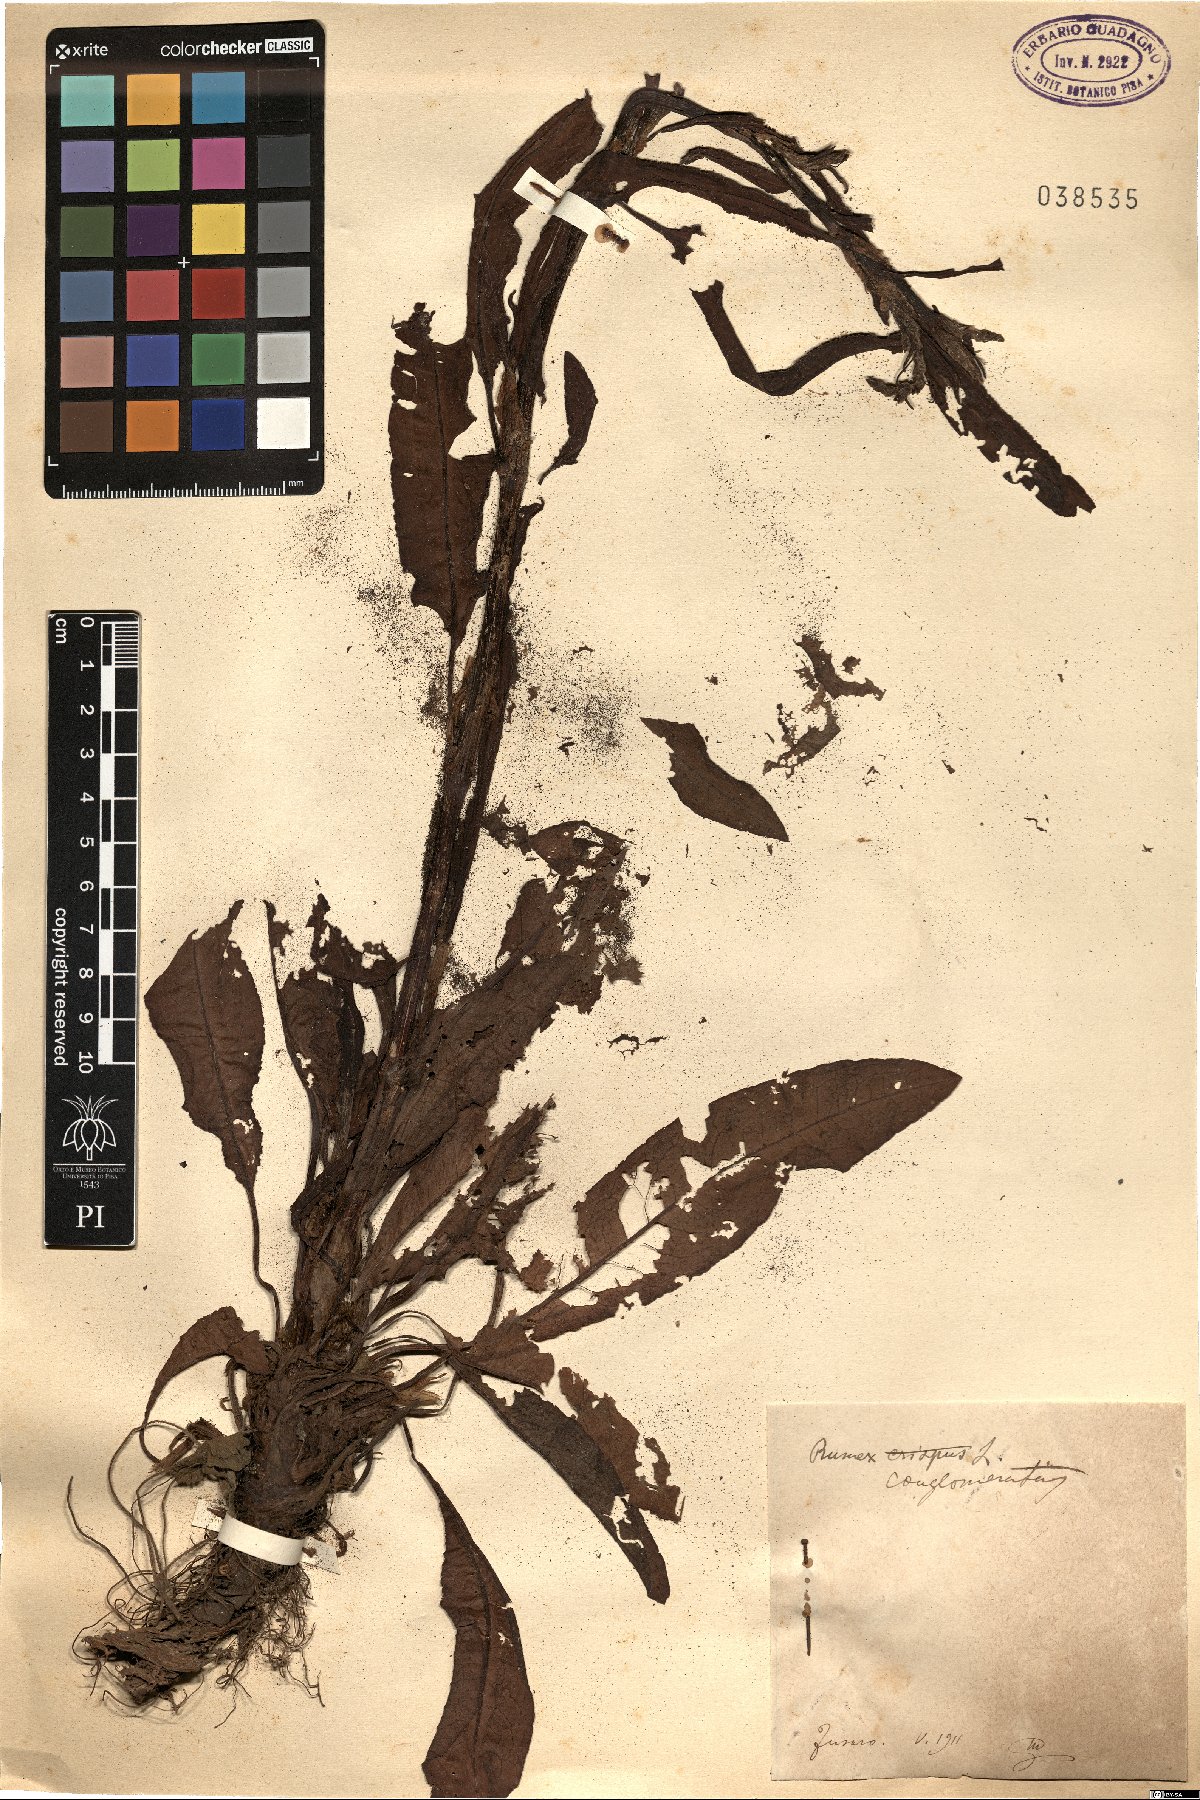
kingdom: Plantae
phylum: Tracheophyta
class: Magnoliopsida
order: Caryophyllales
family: Polygonaceae
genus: Rumex
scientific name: Rumex conglomeratus
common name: Clustered dock
